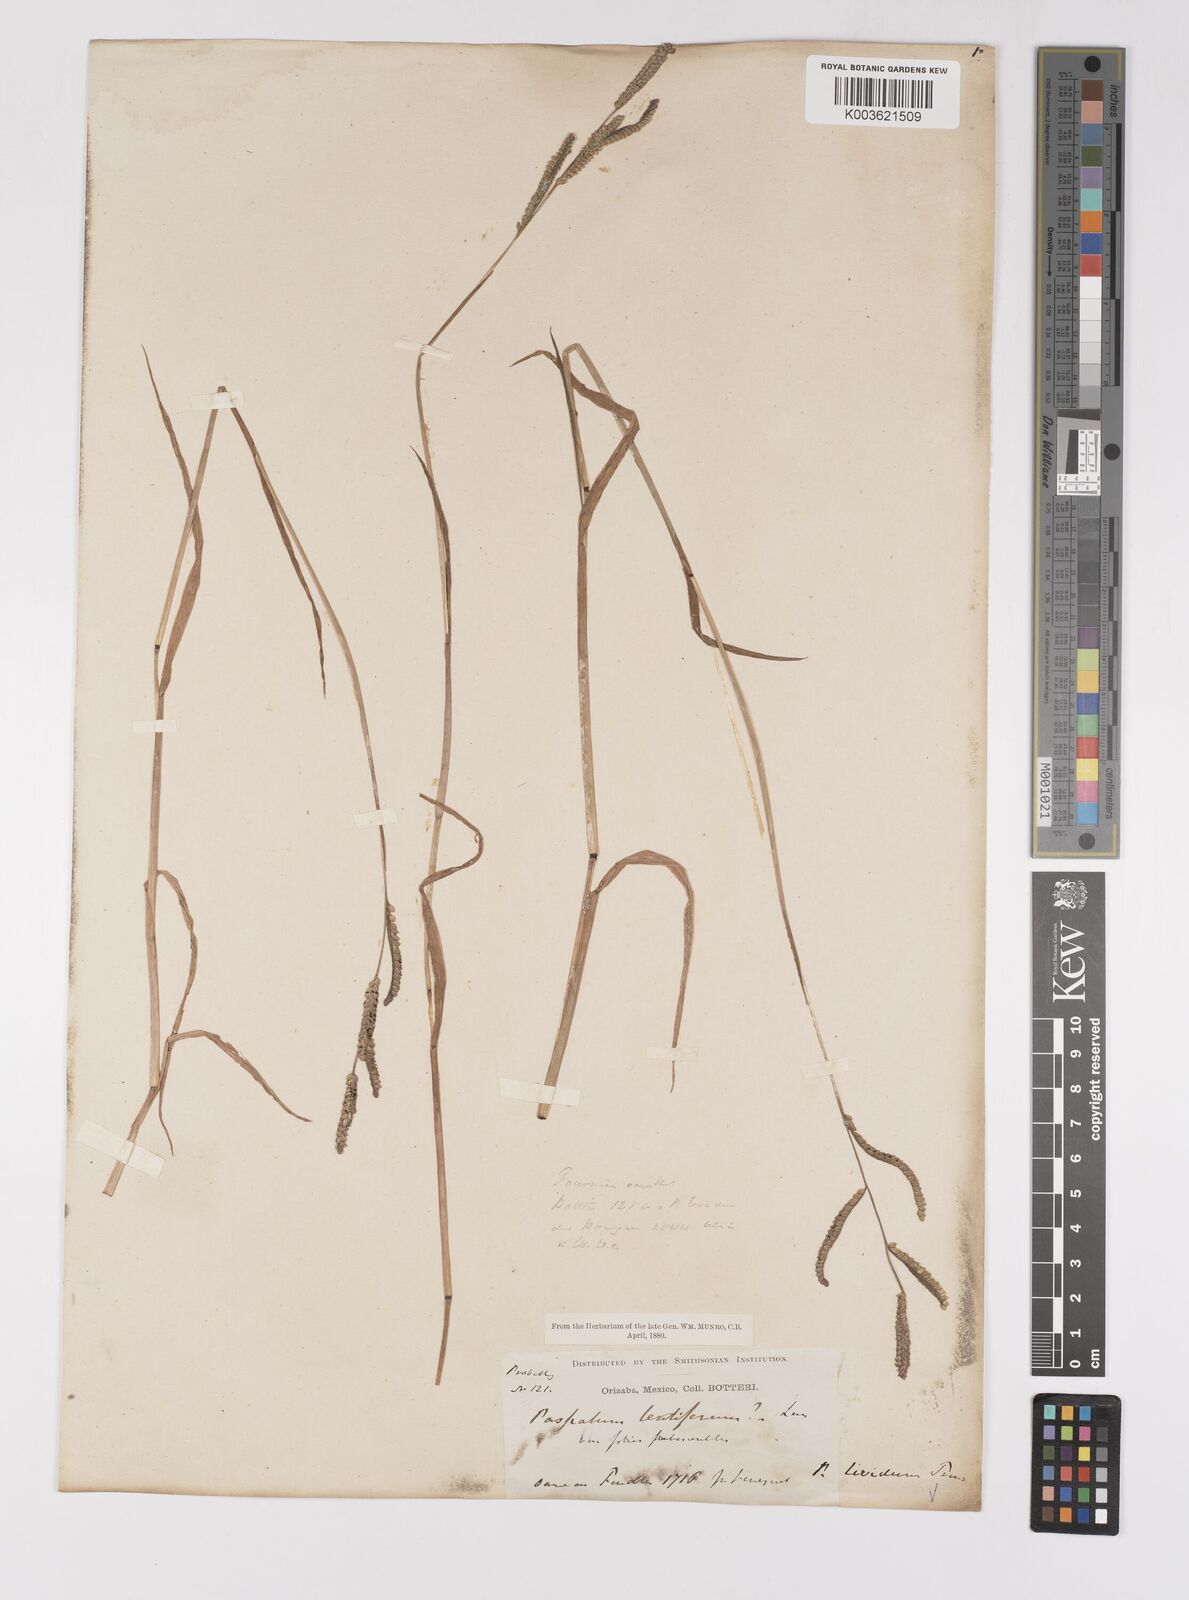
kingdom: Plantae
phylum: Tracheophyta
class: Liliopsida
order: Poales
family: Poaceae
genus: Paspalum
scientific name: Paspalum denticulatum
